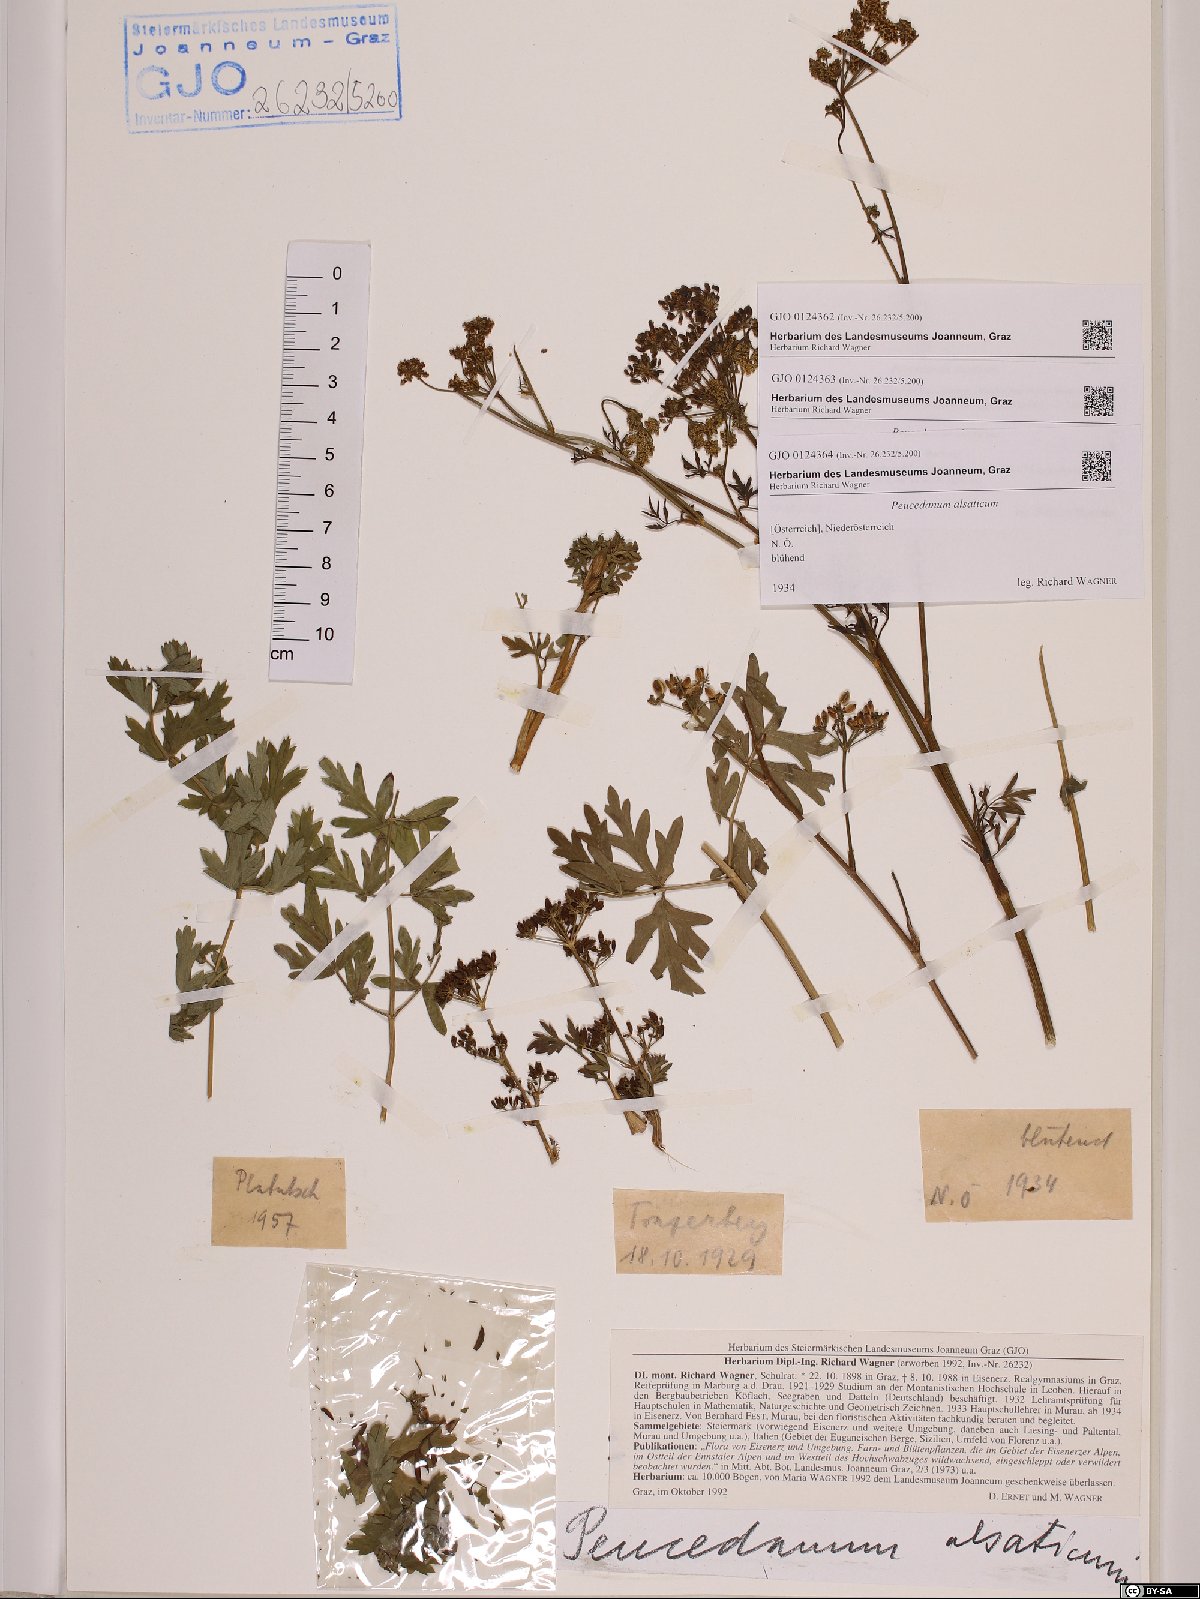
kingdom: Plantae
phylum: Tracheophyta
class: Magnoliopsida
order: Apiales
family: Apiaceae
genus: Xanthoselinum
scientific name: Xanthoselinum alsaticum
